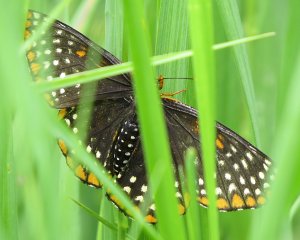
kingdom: Animalia
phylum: Arthropoda
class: Insecta
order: Lepidoptera
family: Nymphalidae
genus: Euphydryas
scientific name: Euphydryas phaeton
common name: Baltimore Checkerspot
